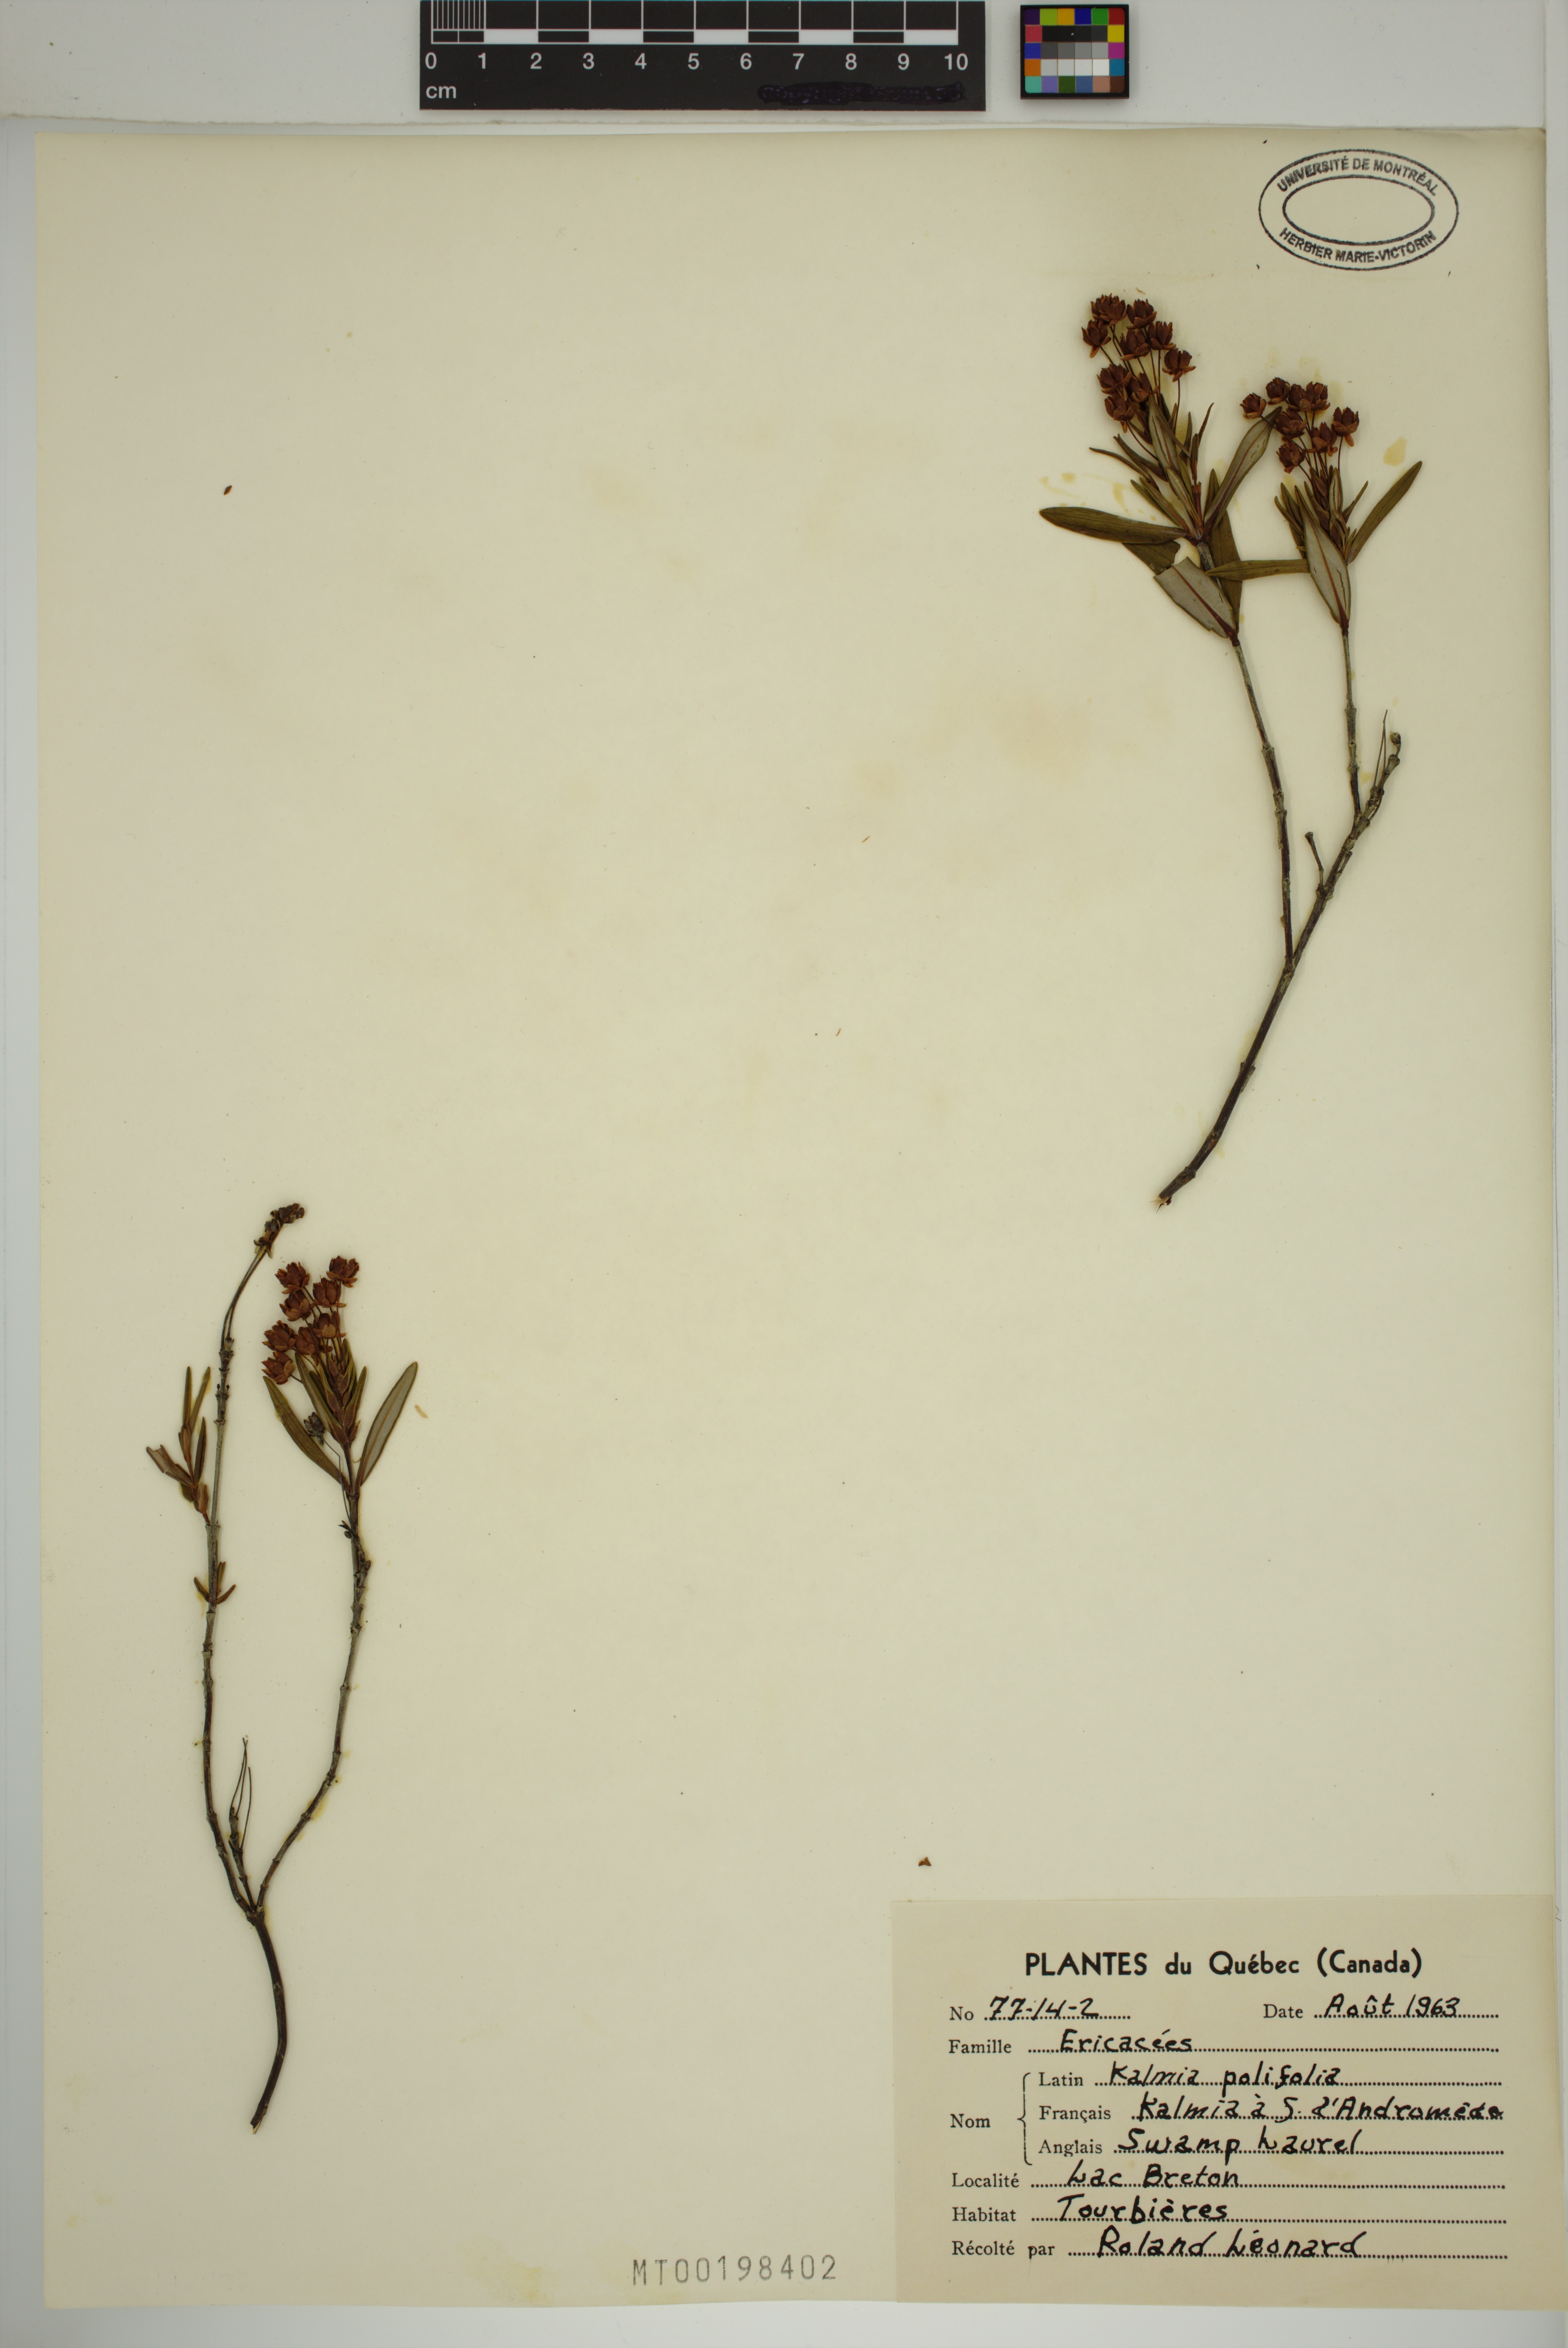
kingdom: Plantae
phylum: Tracheophyta
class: Magnoliopsida
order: Ericales
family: Ericaceae
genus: Kalmia
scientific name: Kalmia polifolia
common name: Bog-laurel
